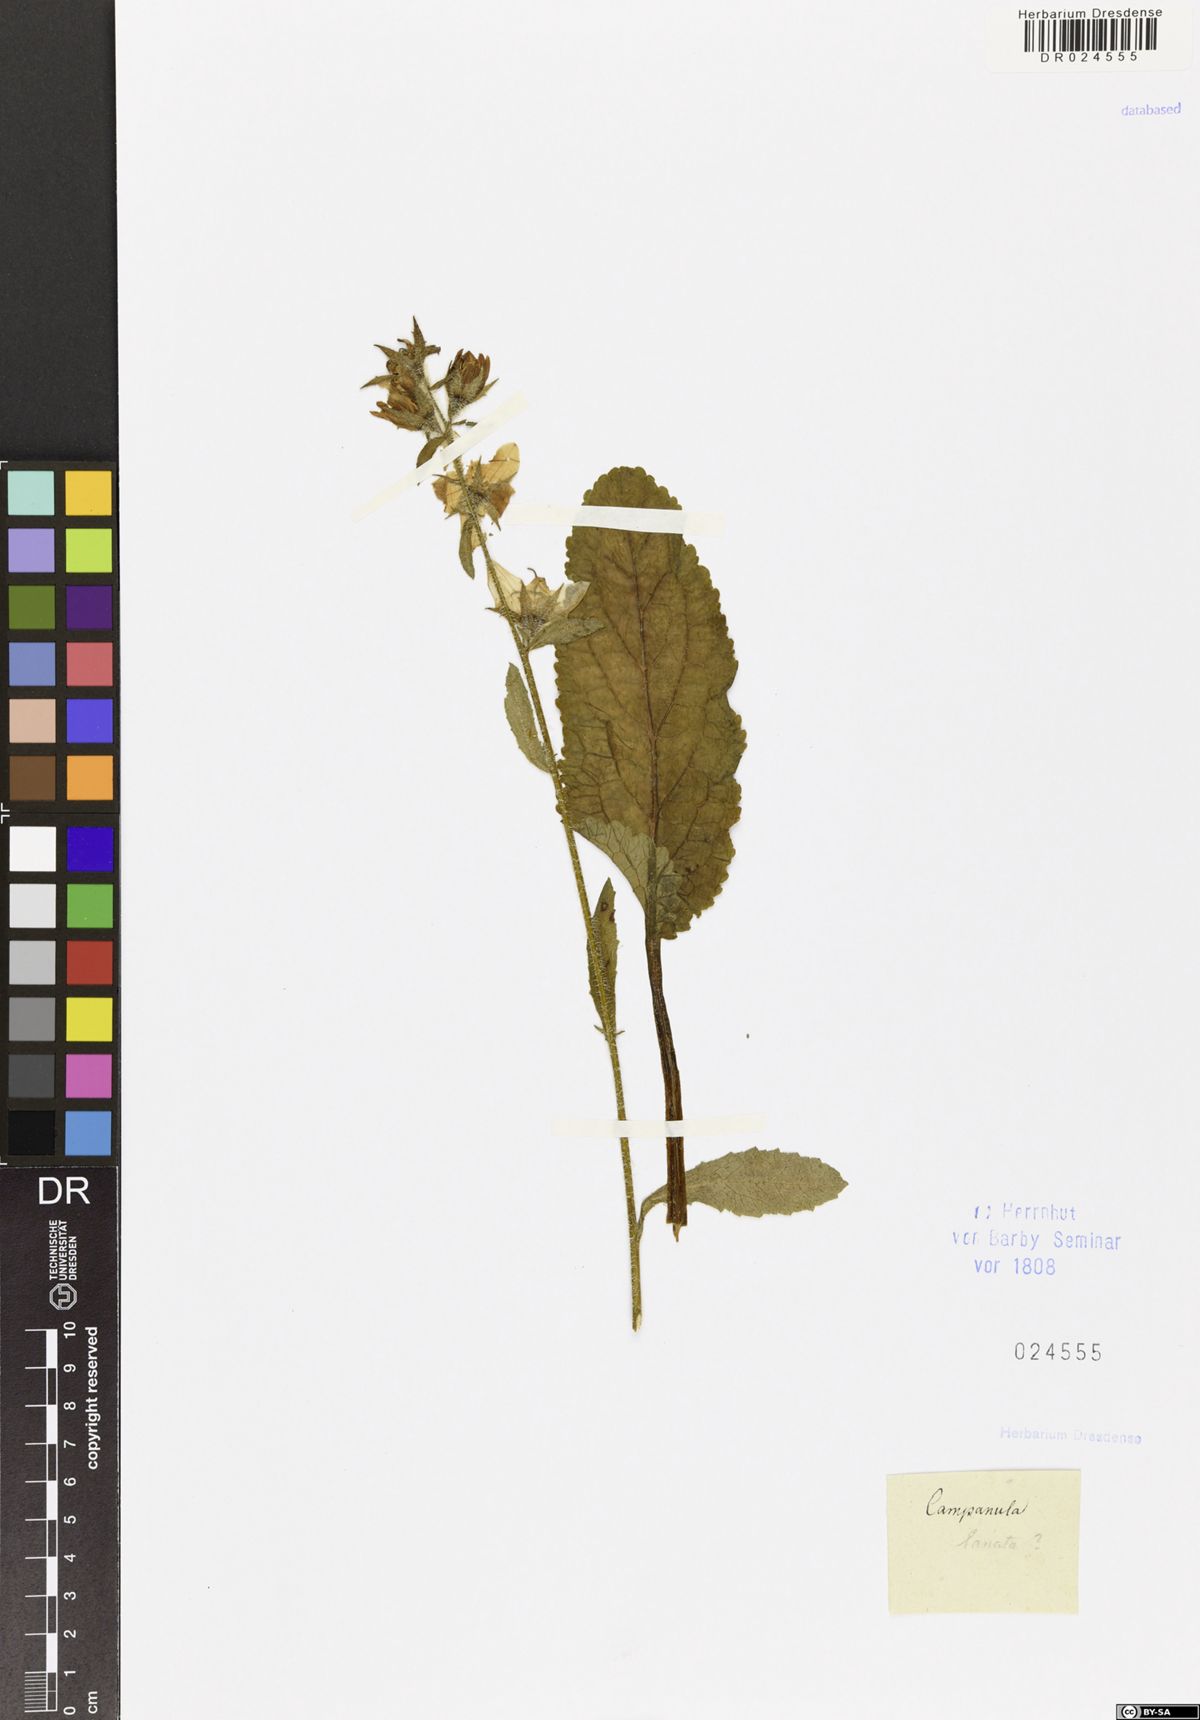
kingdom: Plantae
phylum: Tracheophyta
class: Magnoliopsida
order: Asterales
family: Campanulaceae
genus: Campanula
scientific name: Campanula lanata
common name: Woolly bellflower
